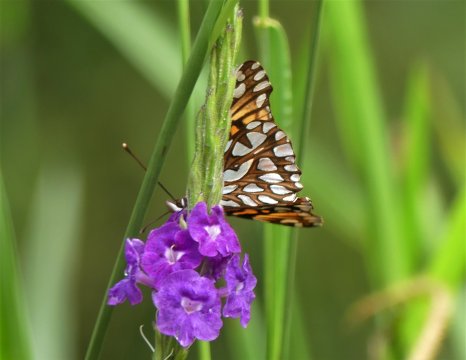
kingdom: Animalia
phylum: Arthropoda
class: Insecta
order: Lepidoptera
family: Nymphalidae
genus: Dione
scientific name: Dione glycera
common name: Andean Silverspot
